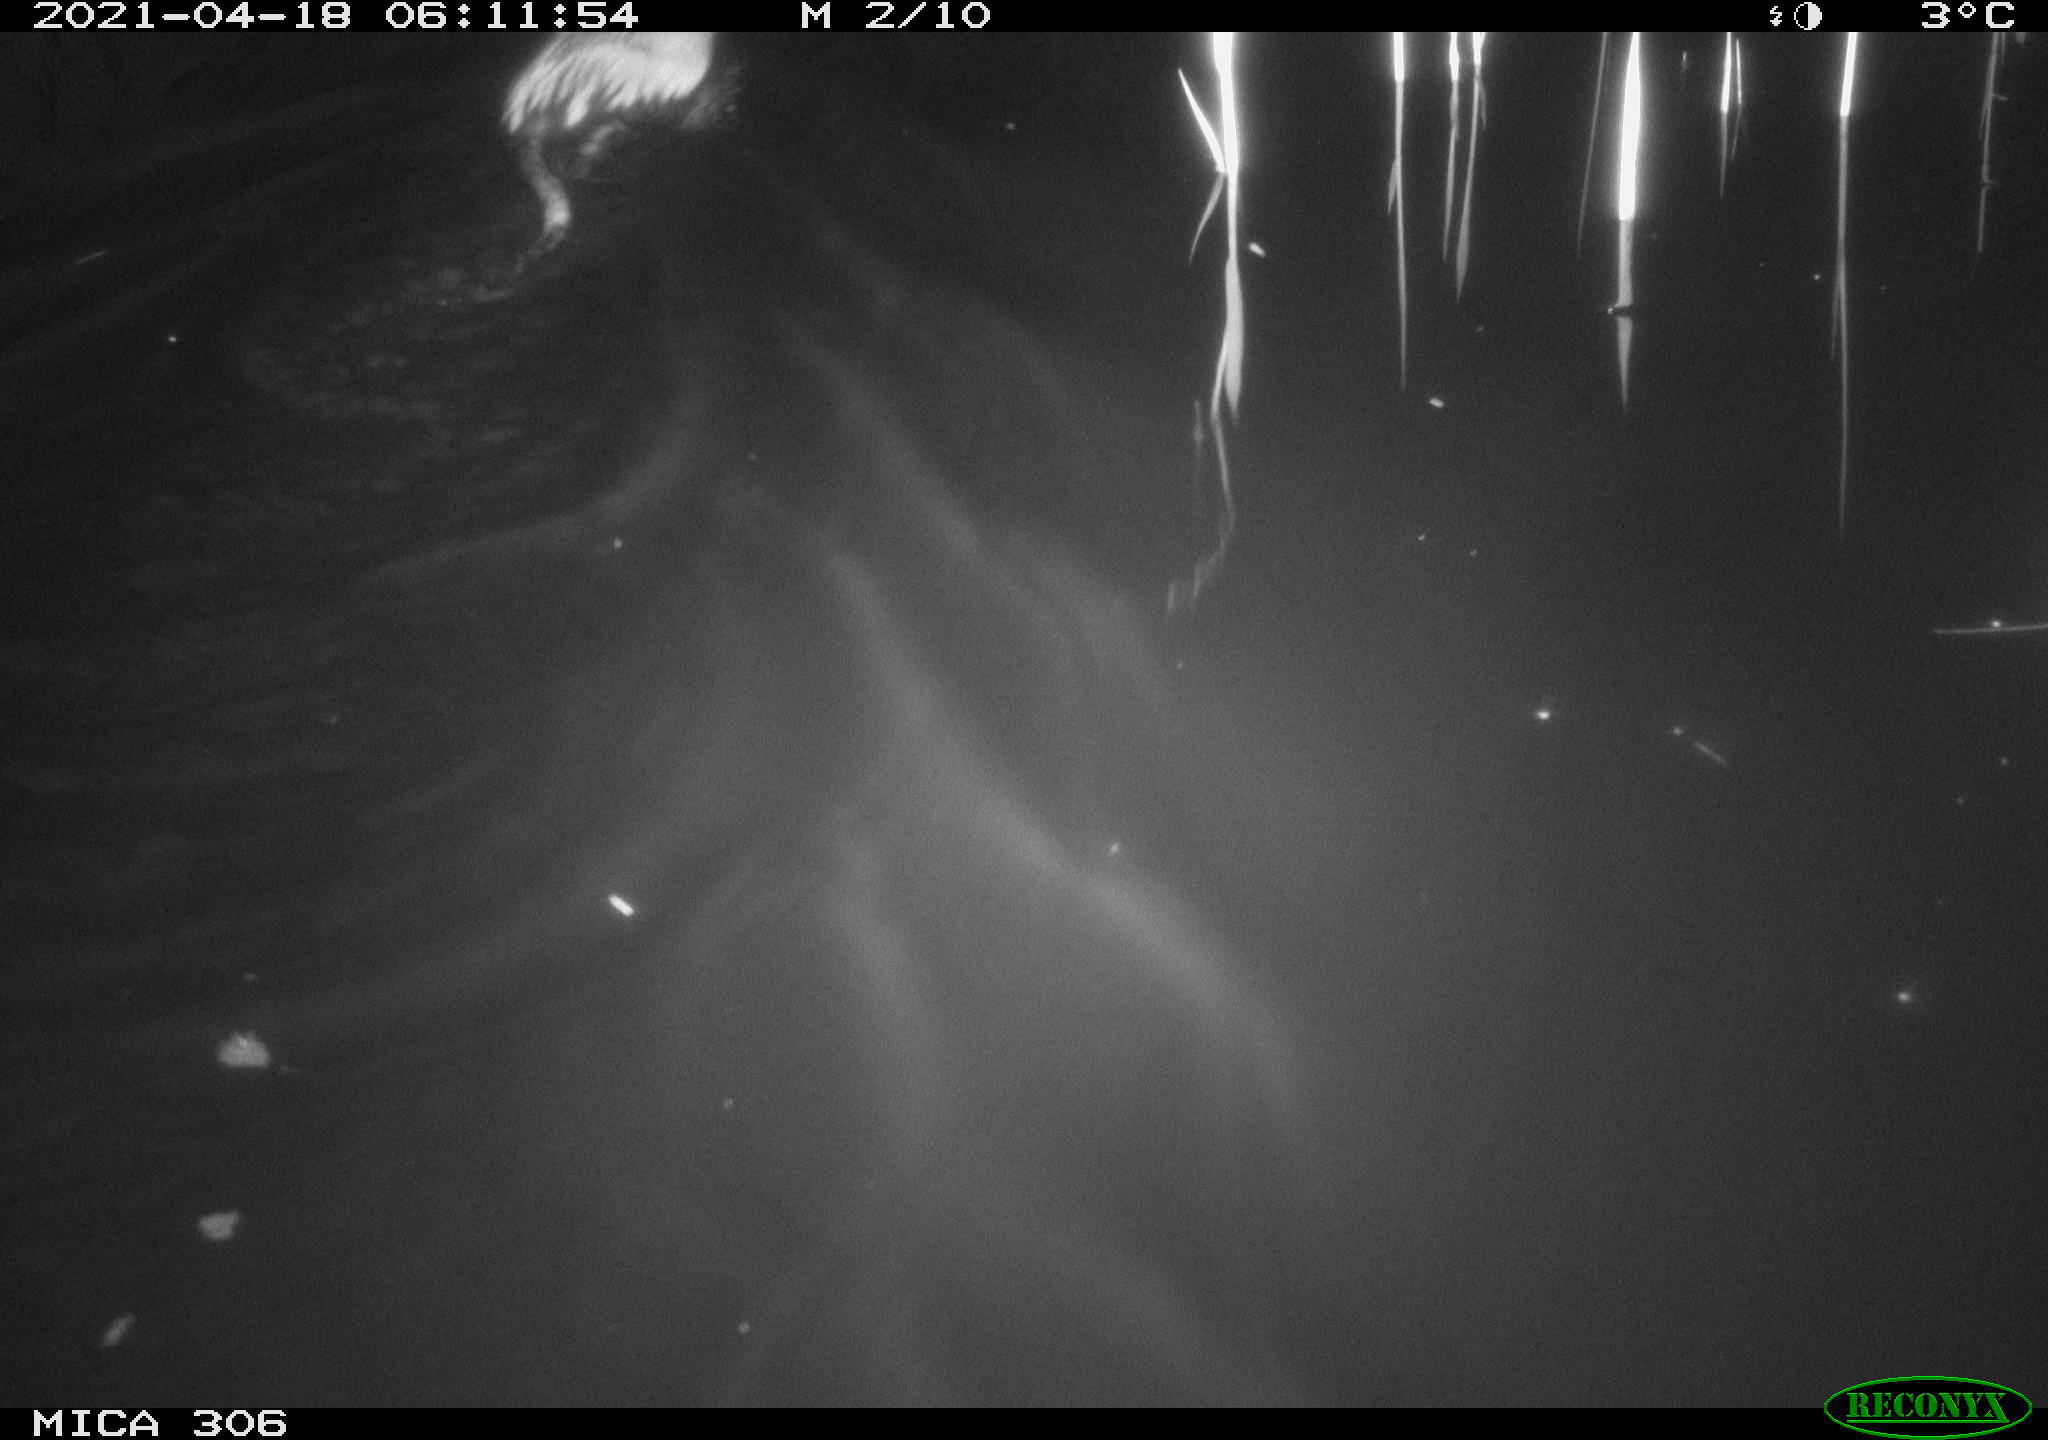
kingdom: Animalia
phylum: Chordata
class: Mammalia
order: Rodentia
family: Cricetidae
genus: Ondatra
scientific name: Ondatra zibethicus
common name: Muskrat
